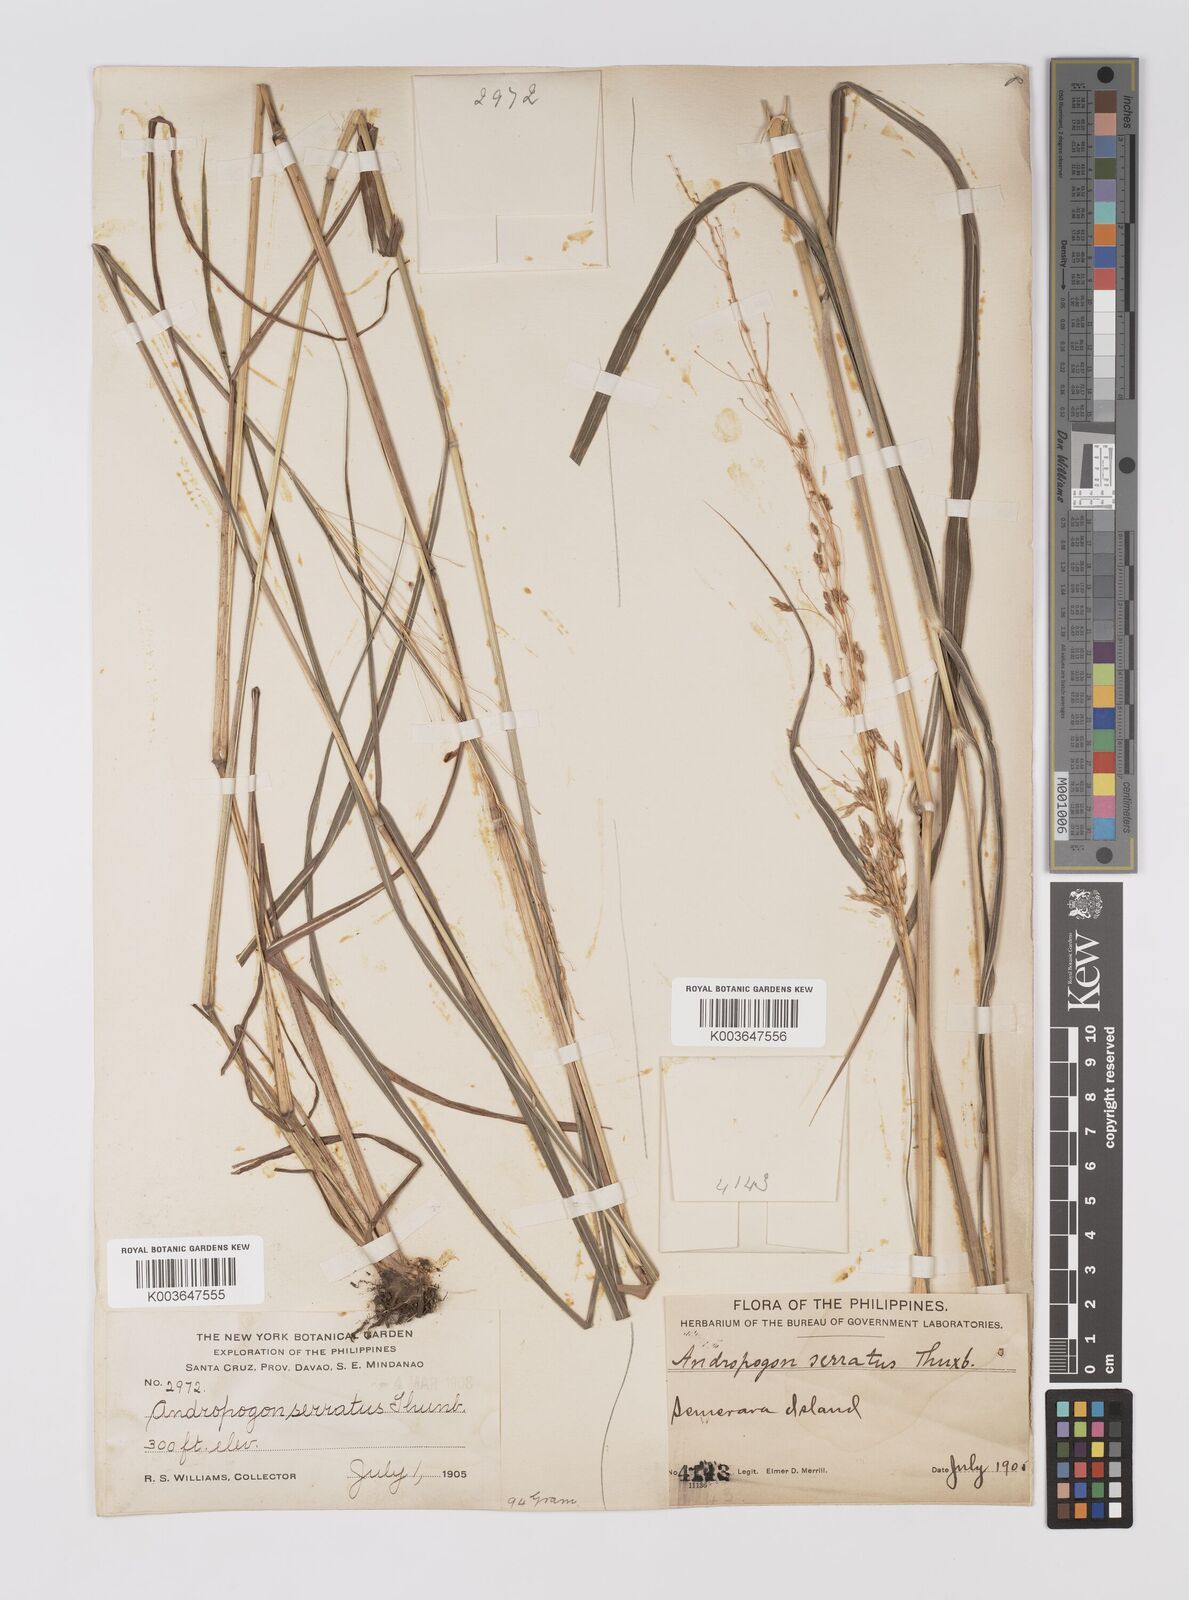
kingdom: Plantae
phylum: Tracheophyta
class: Liliopsida
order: Poales
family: Poaceae
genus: Sorghum
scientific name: Sorghum nitidum
